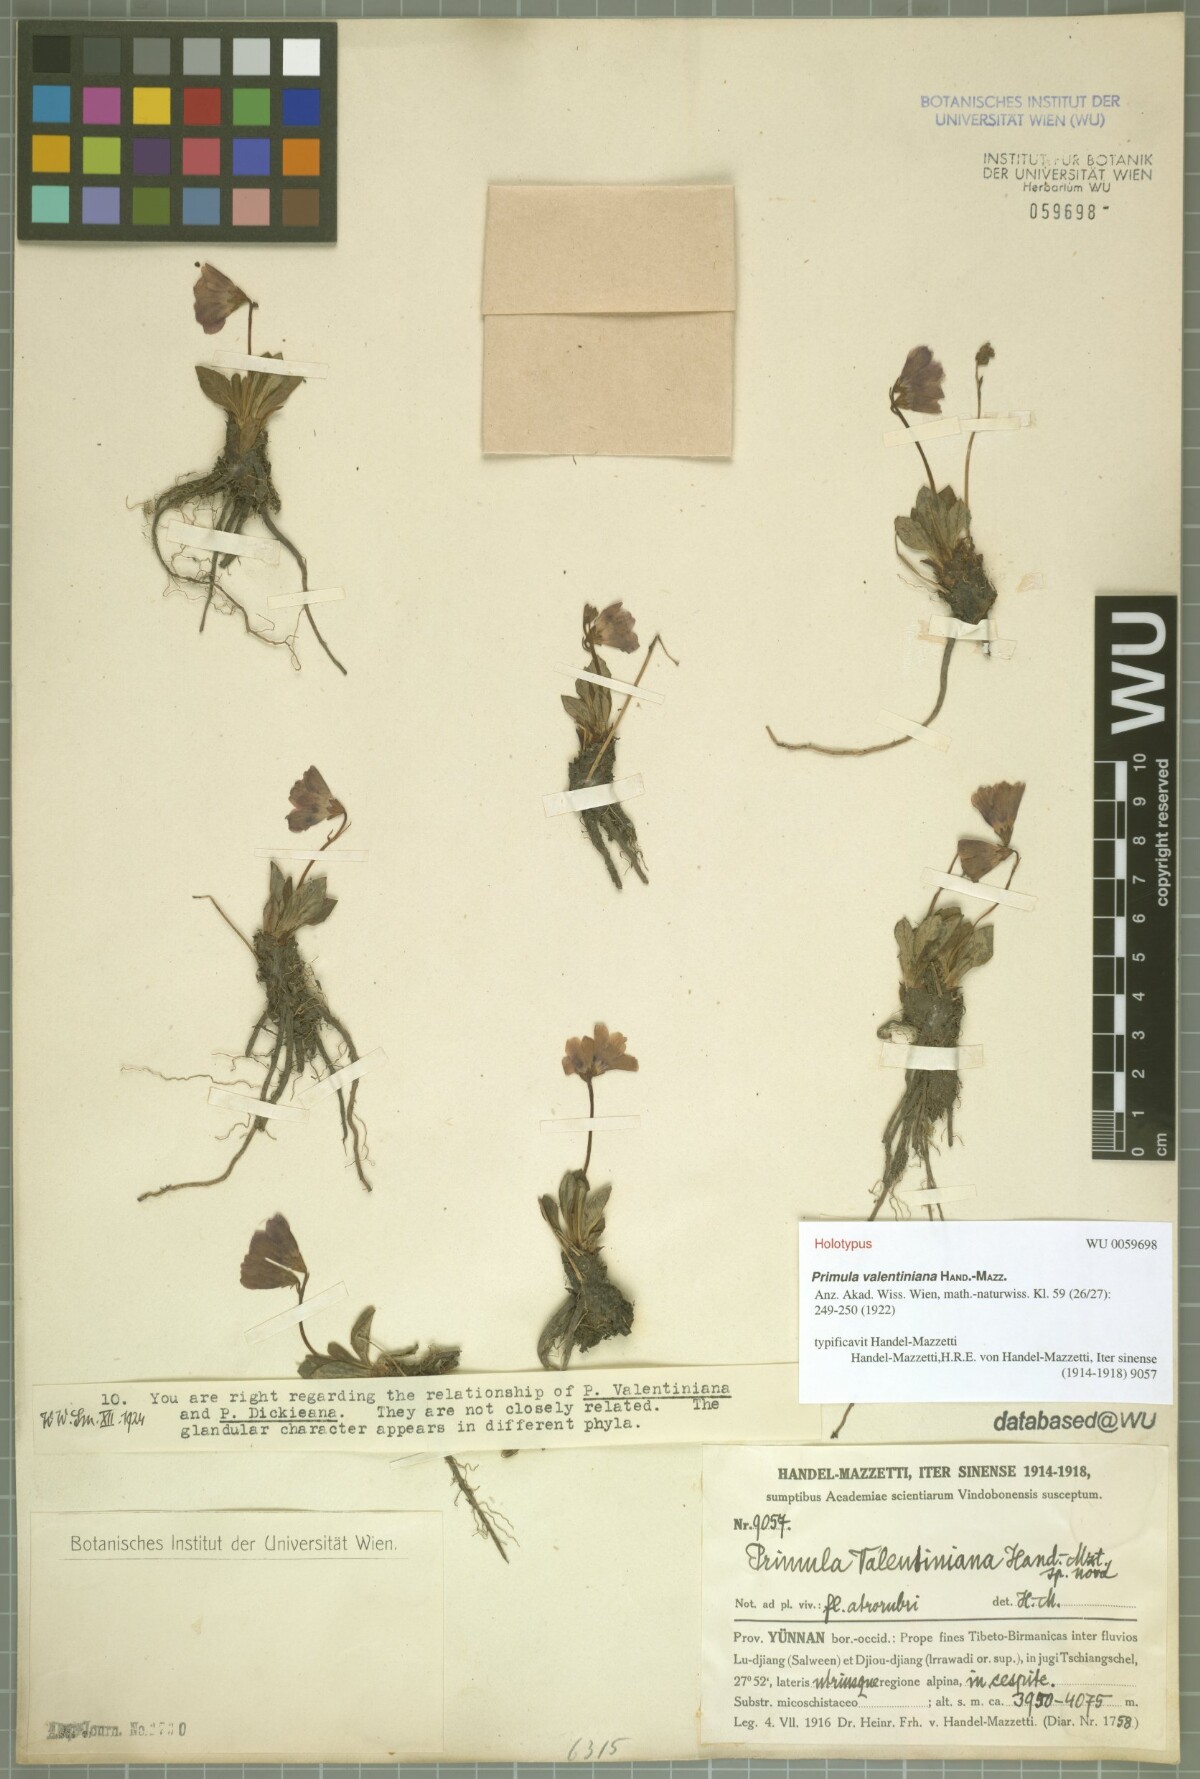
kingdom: Plantae
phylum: Tracheophyta
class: Magnoliopsida
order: Ericales
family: Primulaceae
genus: Primula
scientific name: Primula valentiniana
